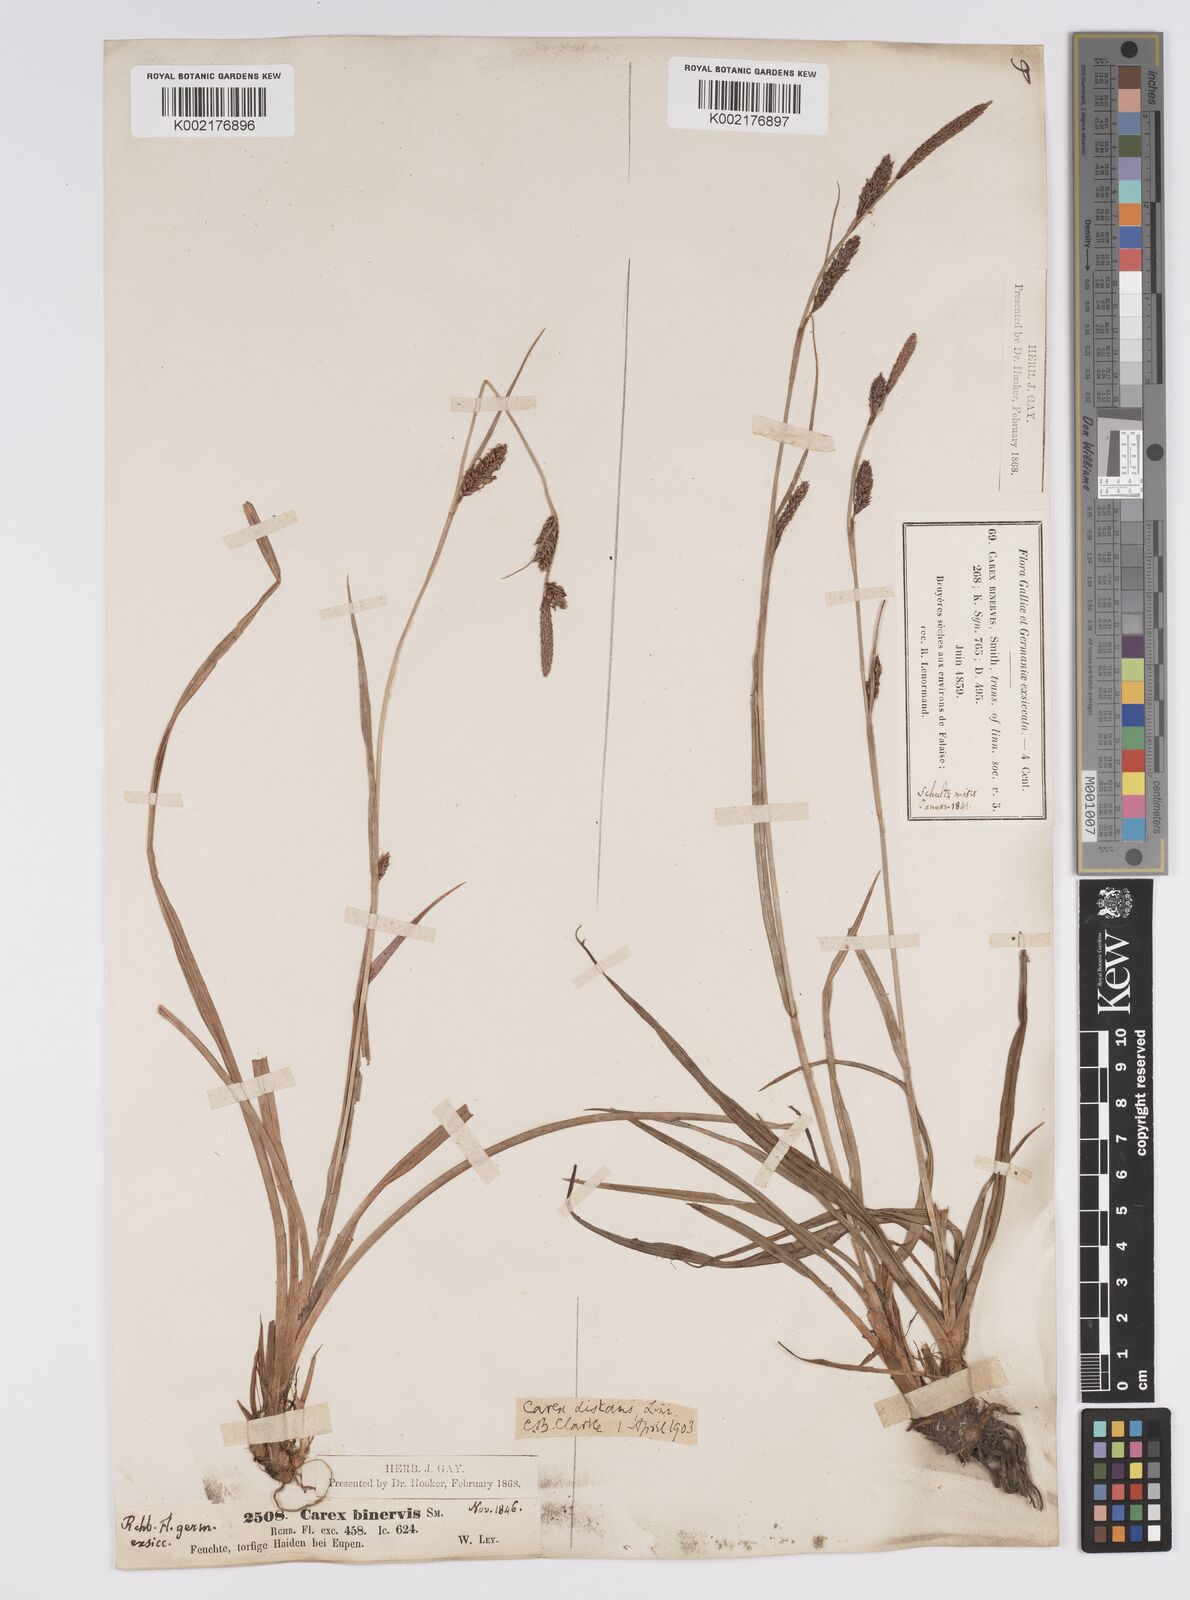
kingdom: Plantae
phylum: Tracheophyta
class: Liliopsida
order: Poales
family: Cyperaceae
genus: Carex
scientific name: Carex binervis
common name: Green-ribbed sedge
